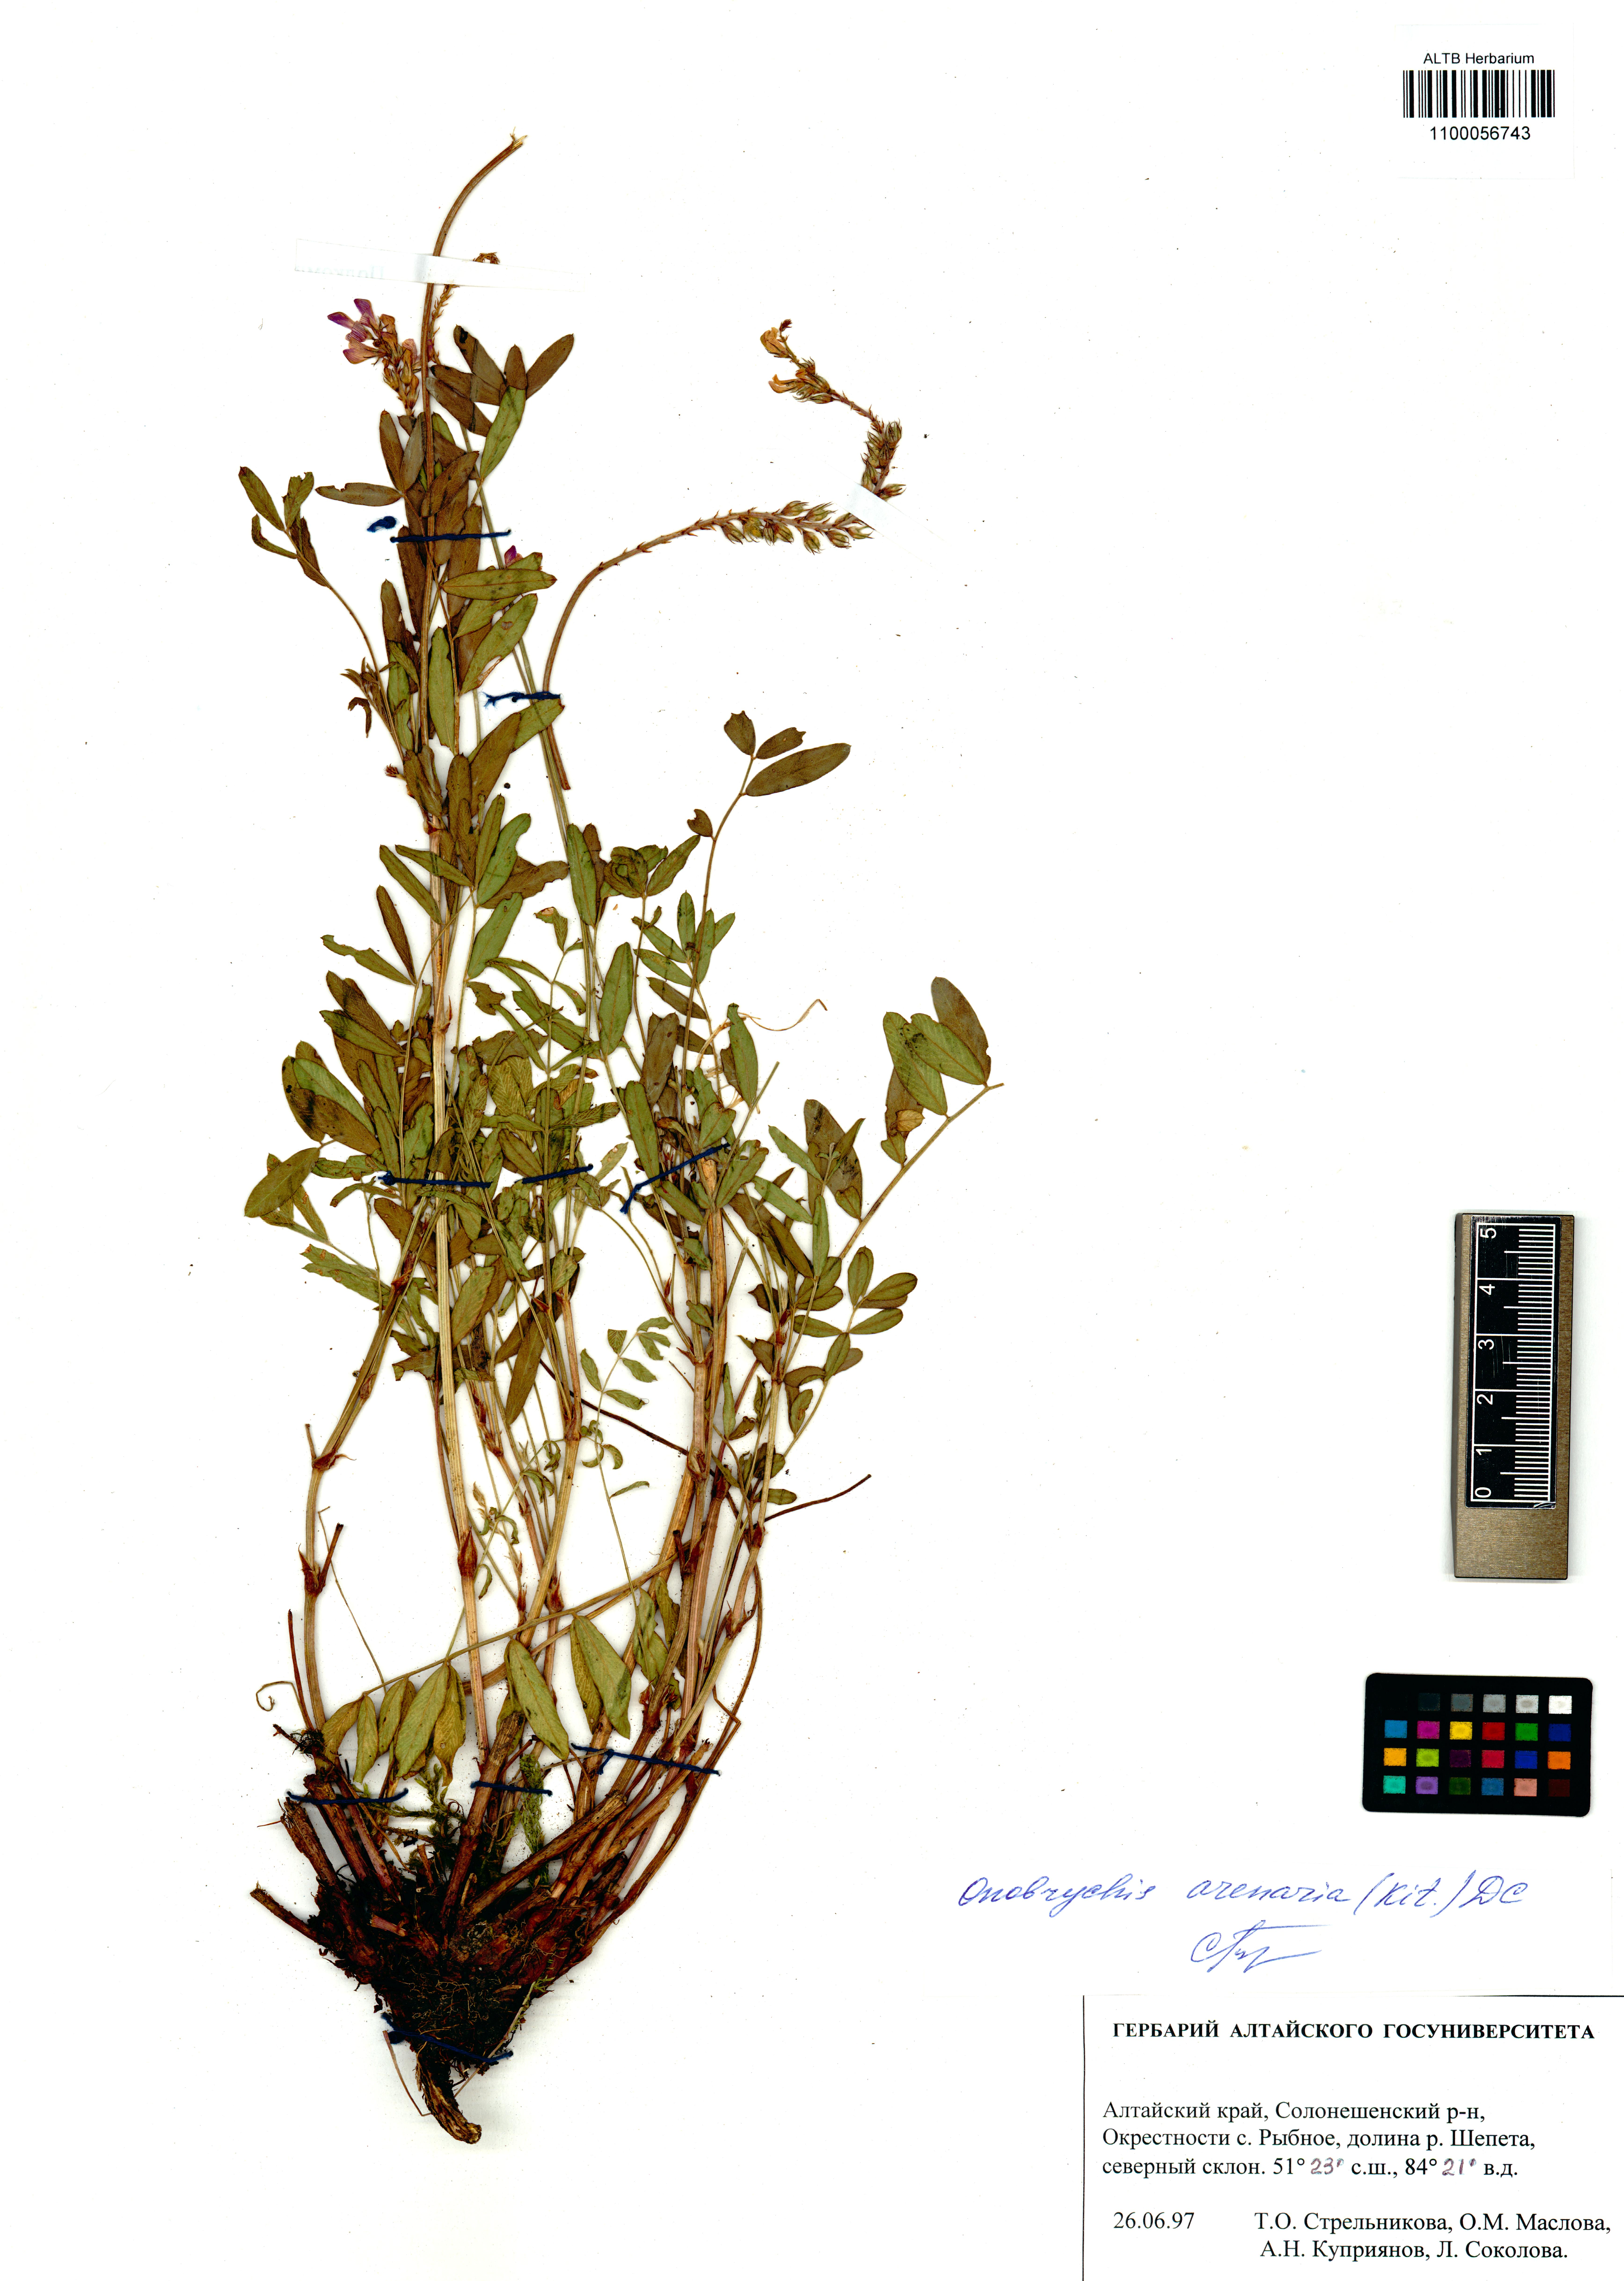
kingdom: Plantae
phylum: Tracheophyta
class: Magnoliopsida
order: Fabales
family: Fabaceae
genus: Onobrychis
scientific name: Onobrychis arenaria
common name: Sand esparcet
